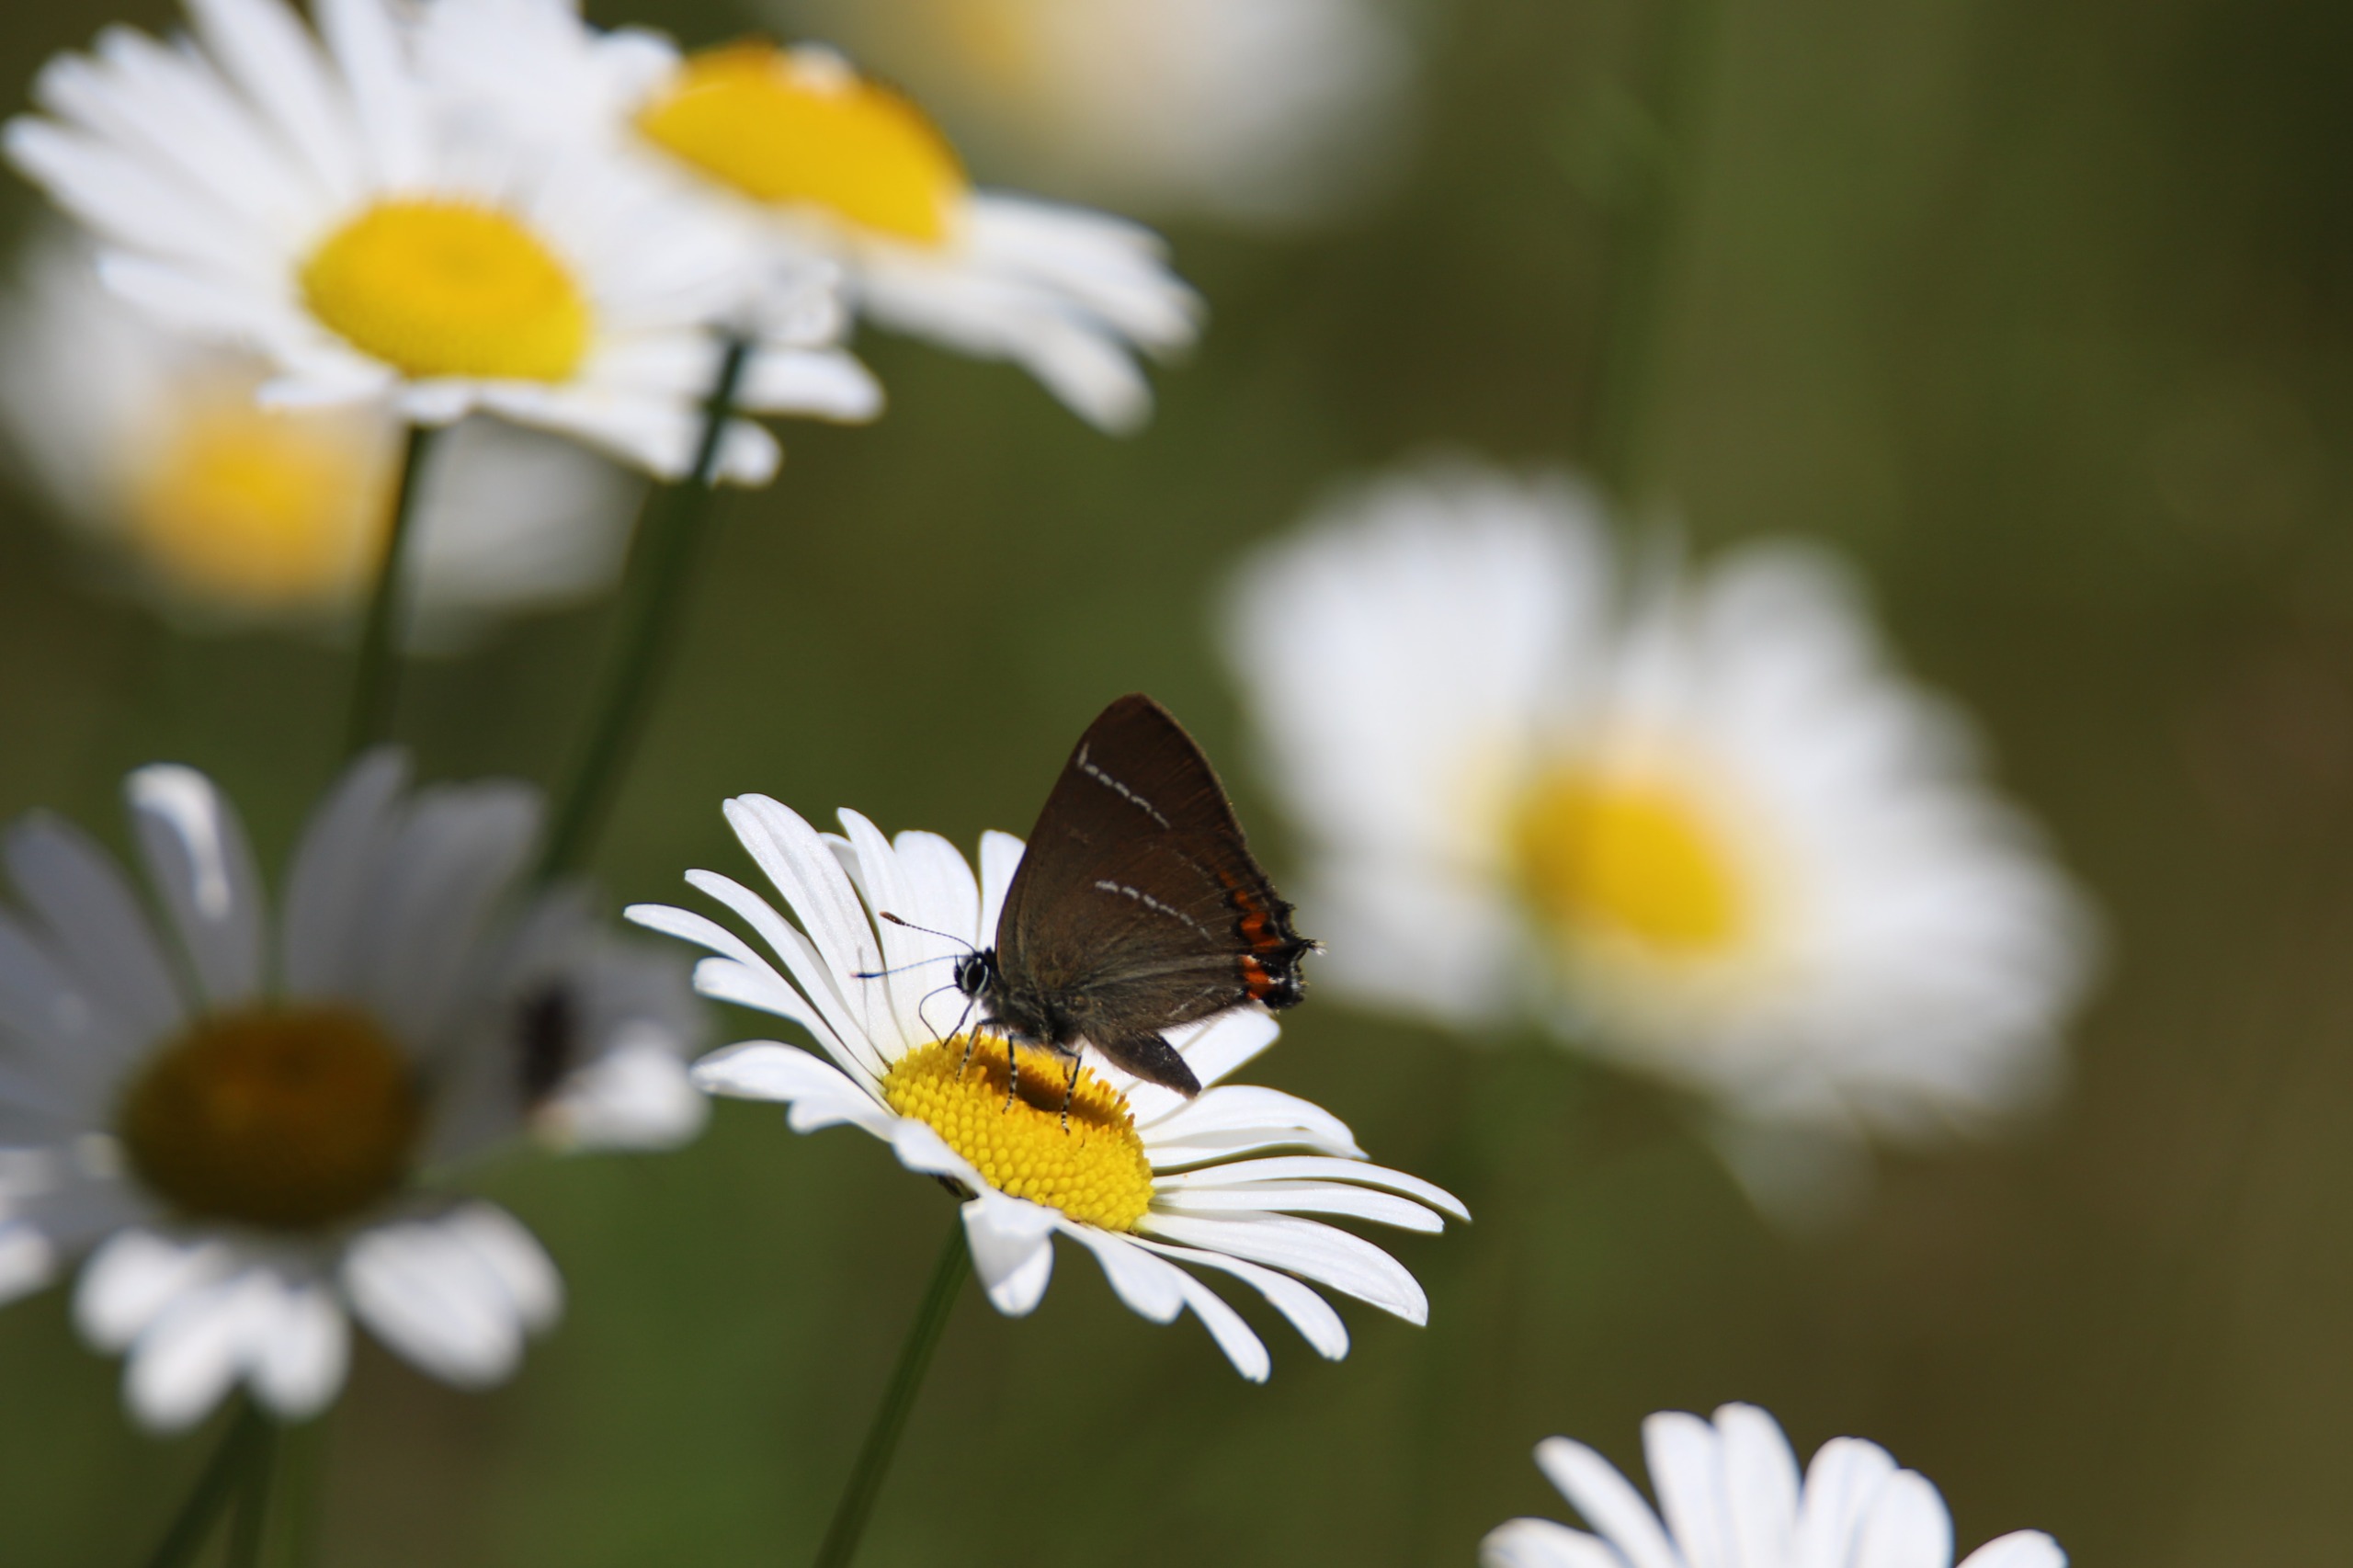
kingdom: Animalia
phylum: Arthropoda
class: Insecta
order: Lepidoptera
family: Lycaenidae
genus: Satyrium
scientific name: Satyrium w-album
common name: Det hvide W
